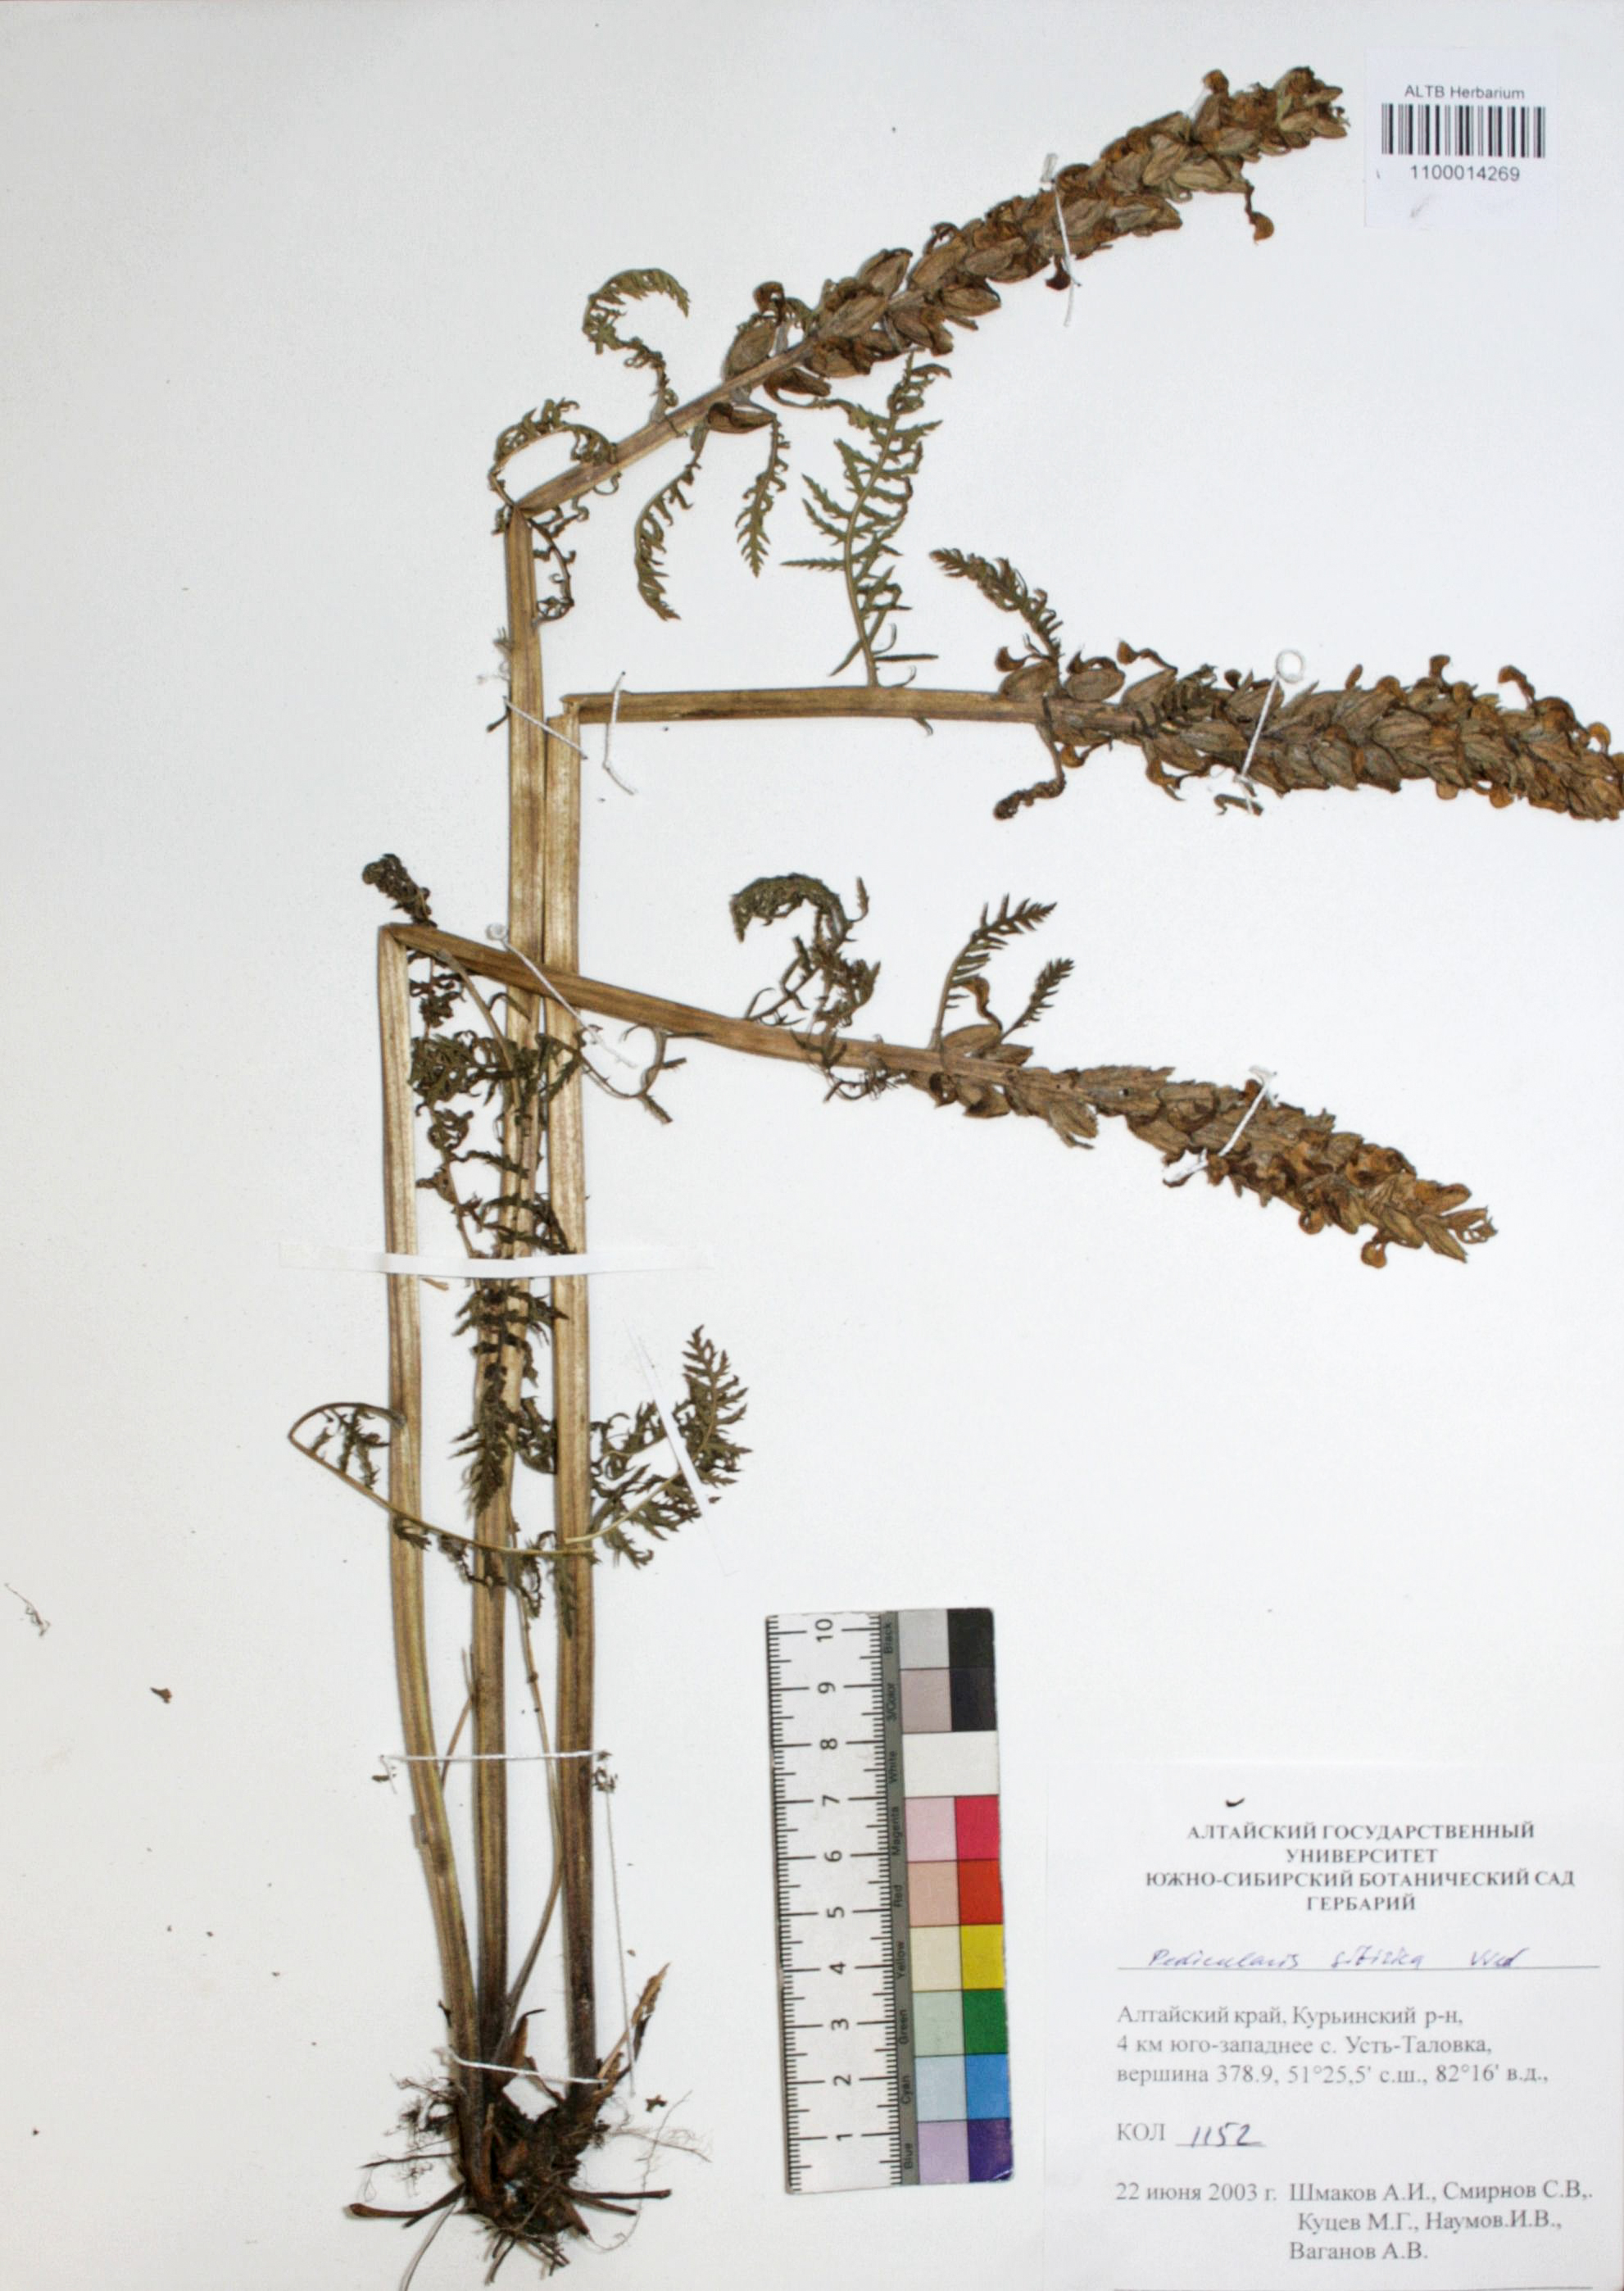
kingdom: Plantae
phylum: Tracheophyta
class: Magnoliopsida
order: Lamiales
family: Orobanchaceae
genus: Pedicularis
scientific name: Pedicularis sibirica
